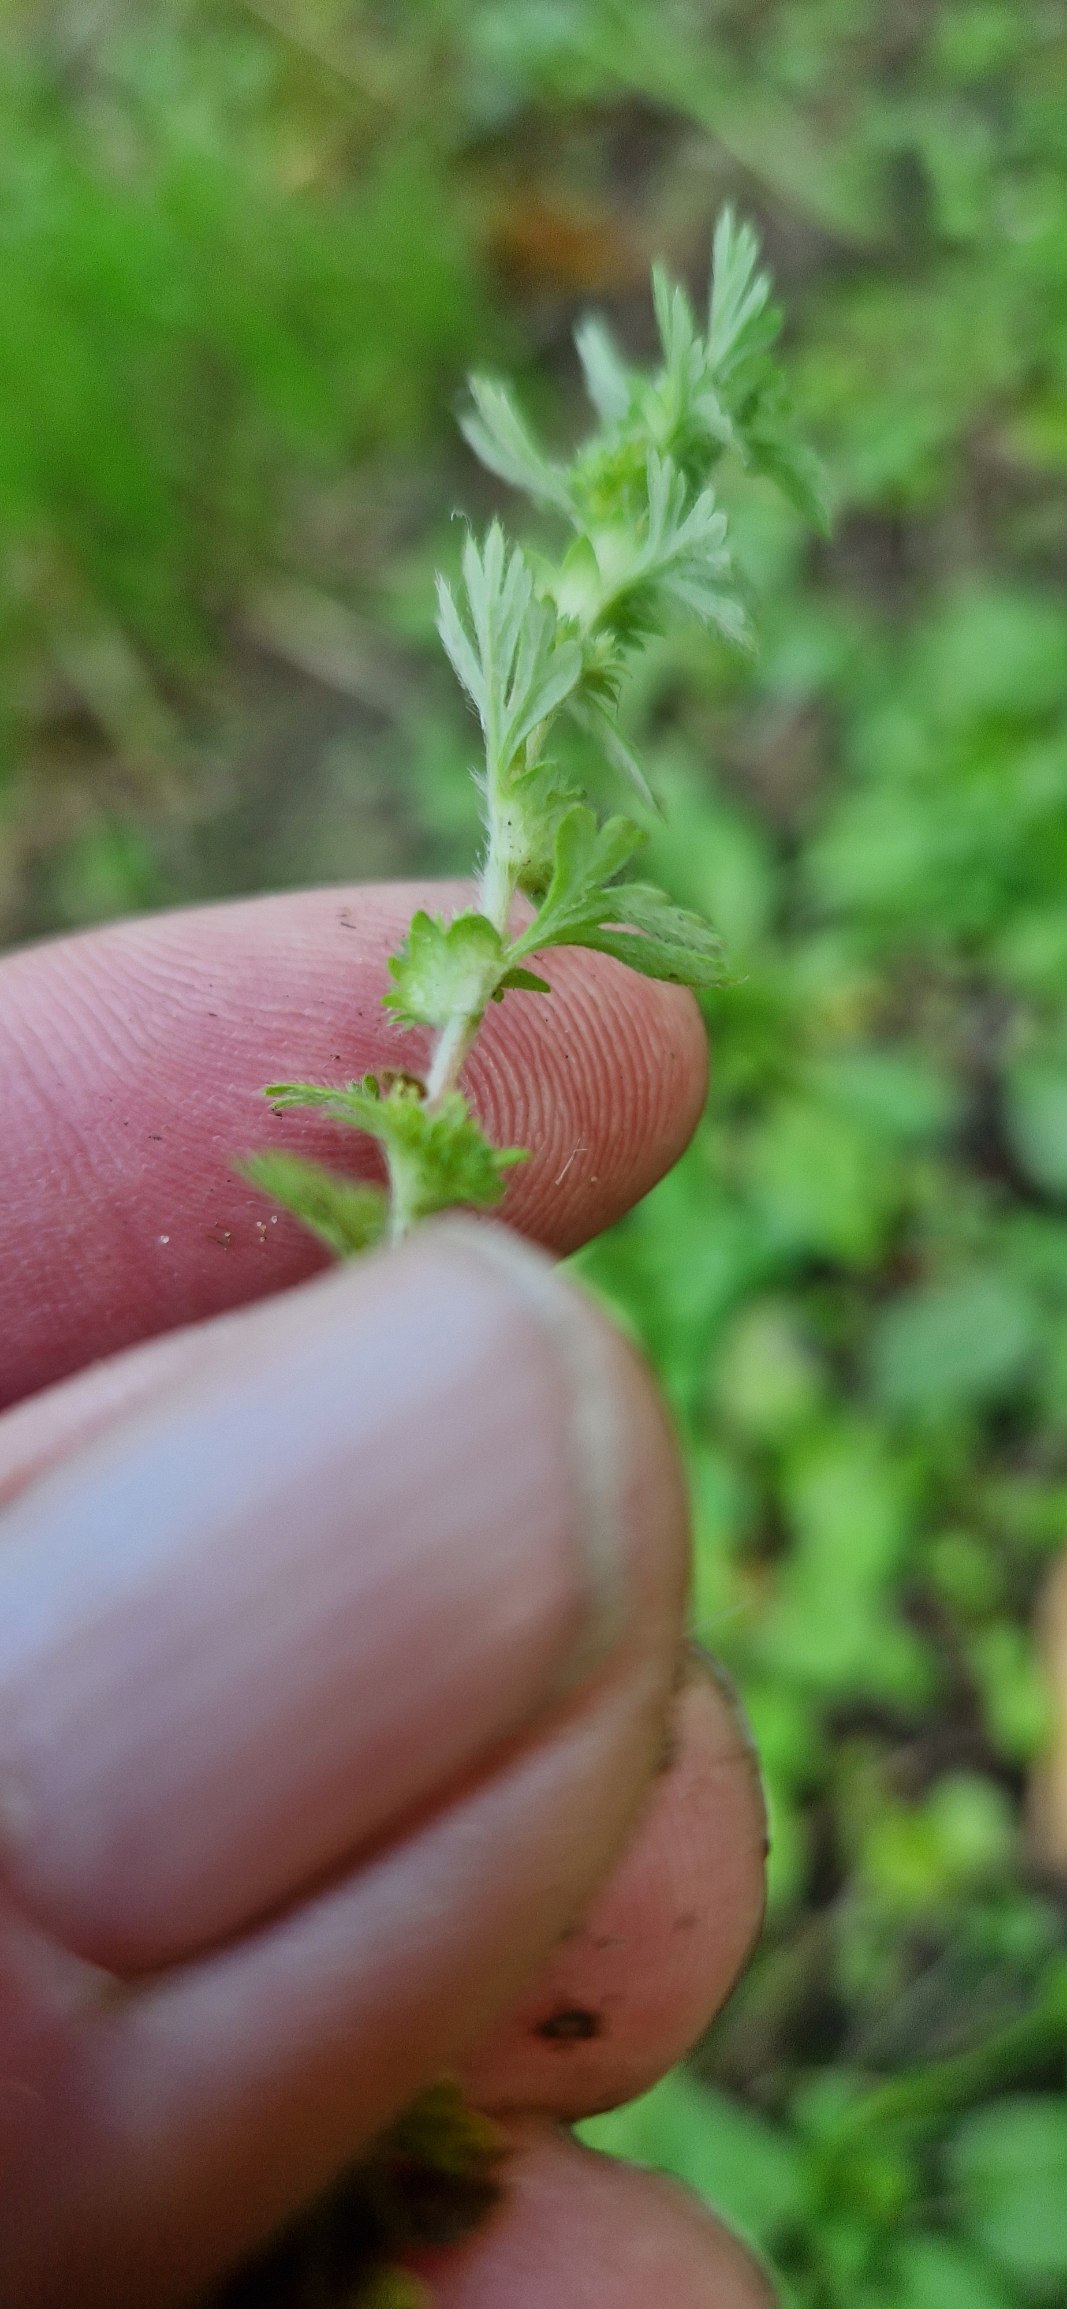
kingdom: Plantae
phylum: Tracheophyta
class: Magnoliopsida
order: Rosales
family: Rosaceae
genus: Aphanes
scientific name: Aphanes arvensis
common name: Dværgløvefod
